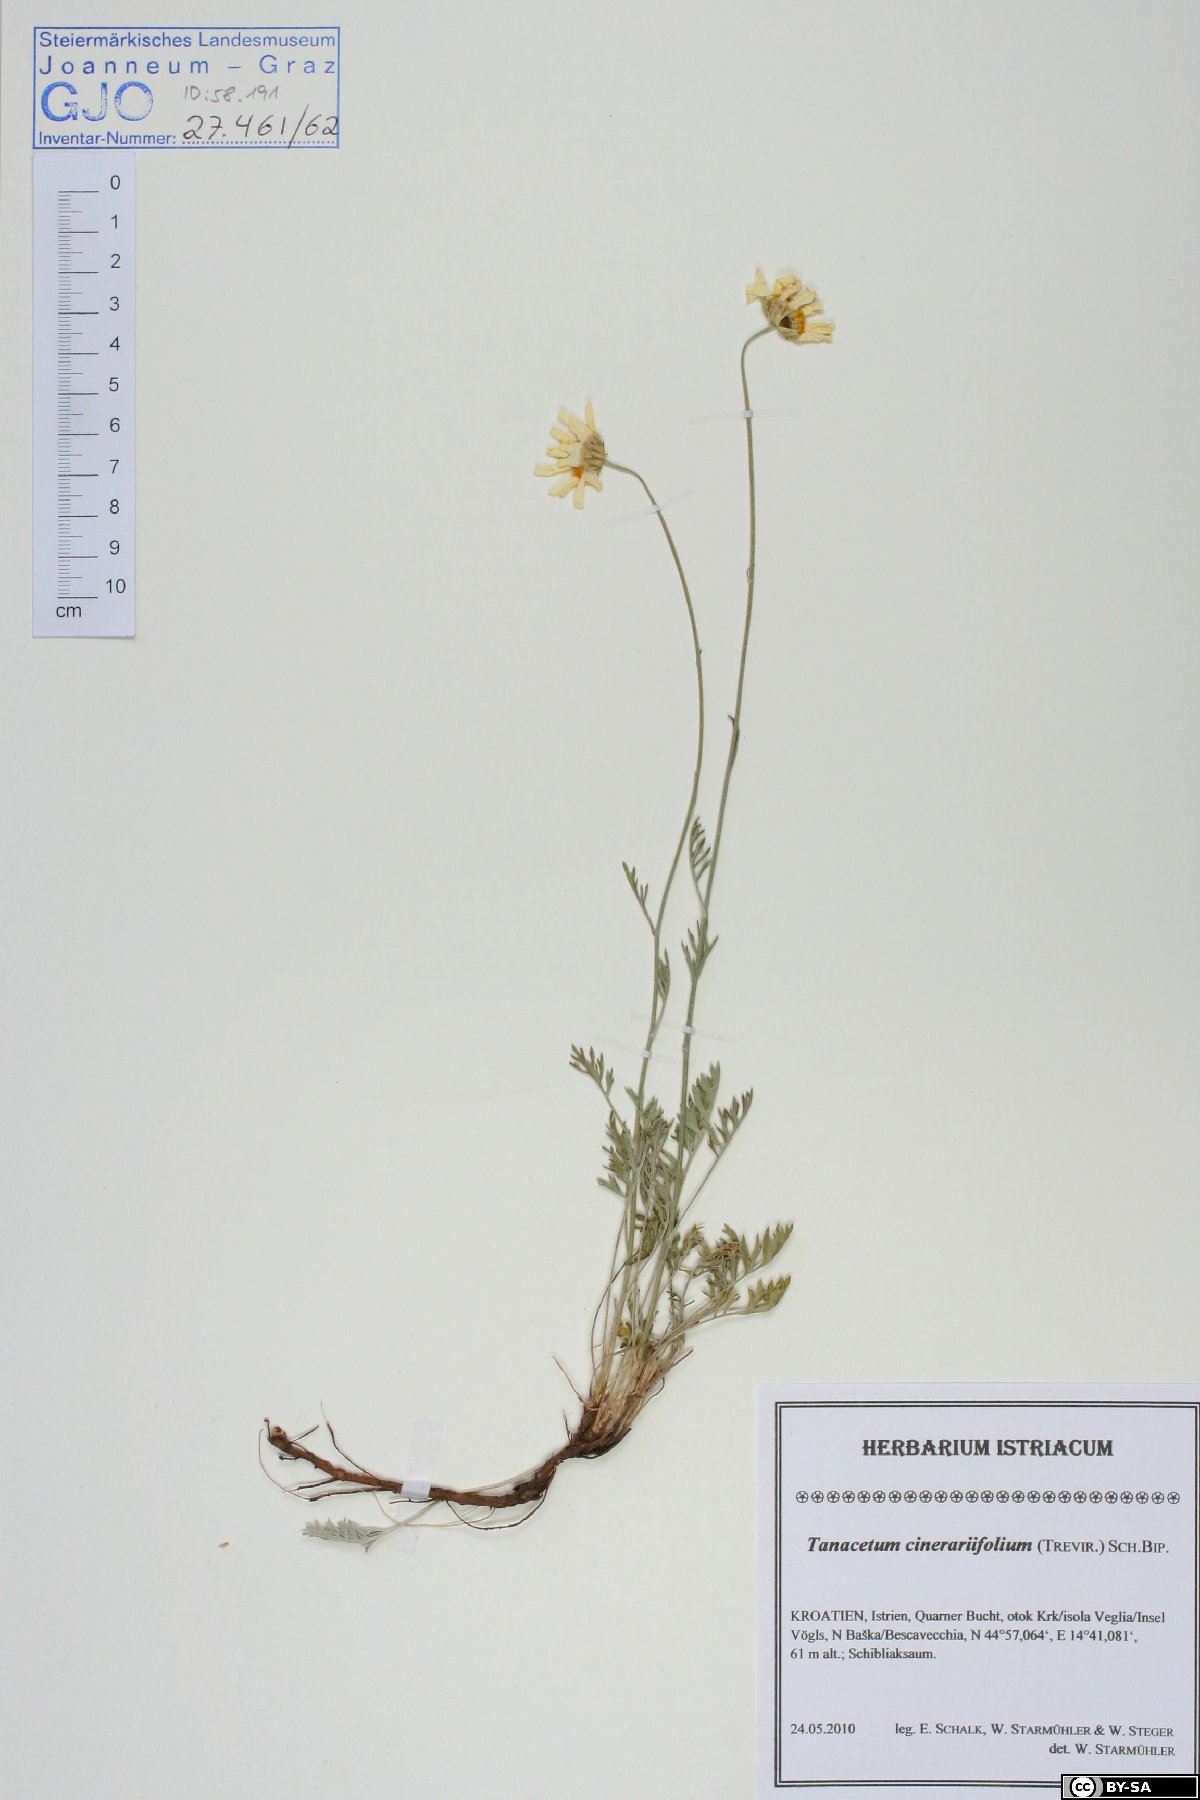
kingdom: Plantae
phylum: Tracheophyta
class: Magnoliopsida
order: Asterales
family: Asteraceae
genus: Tanacetum
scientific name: Tanacetum cinerariifolium
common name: Dalmatian pyrethrum
